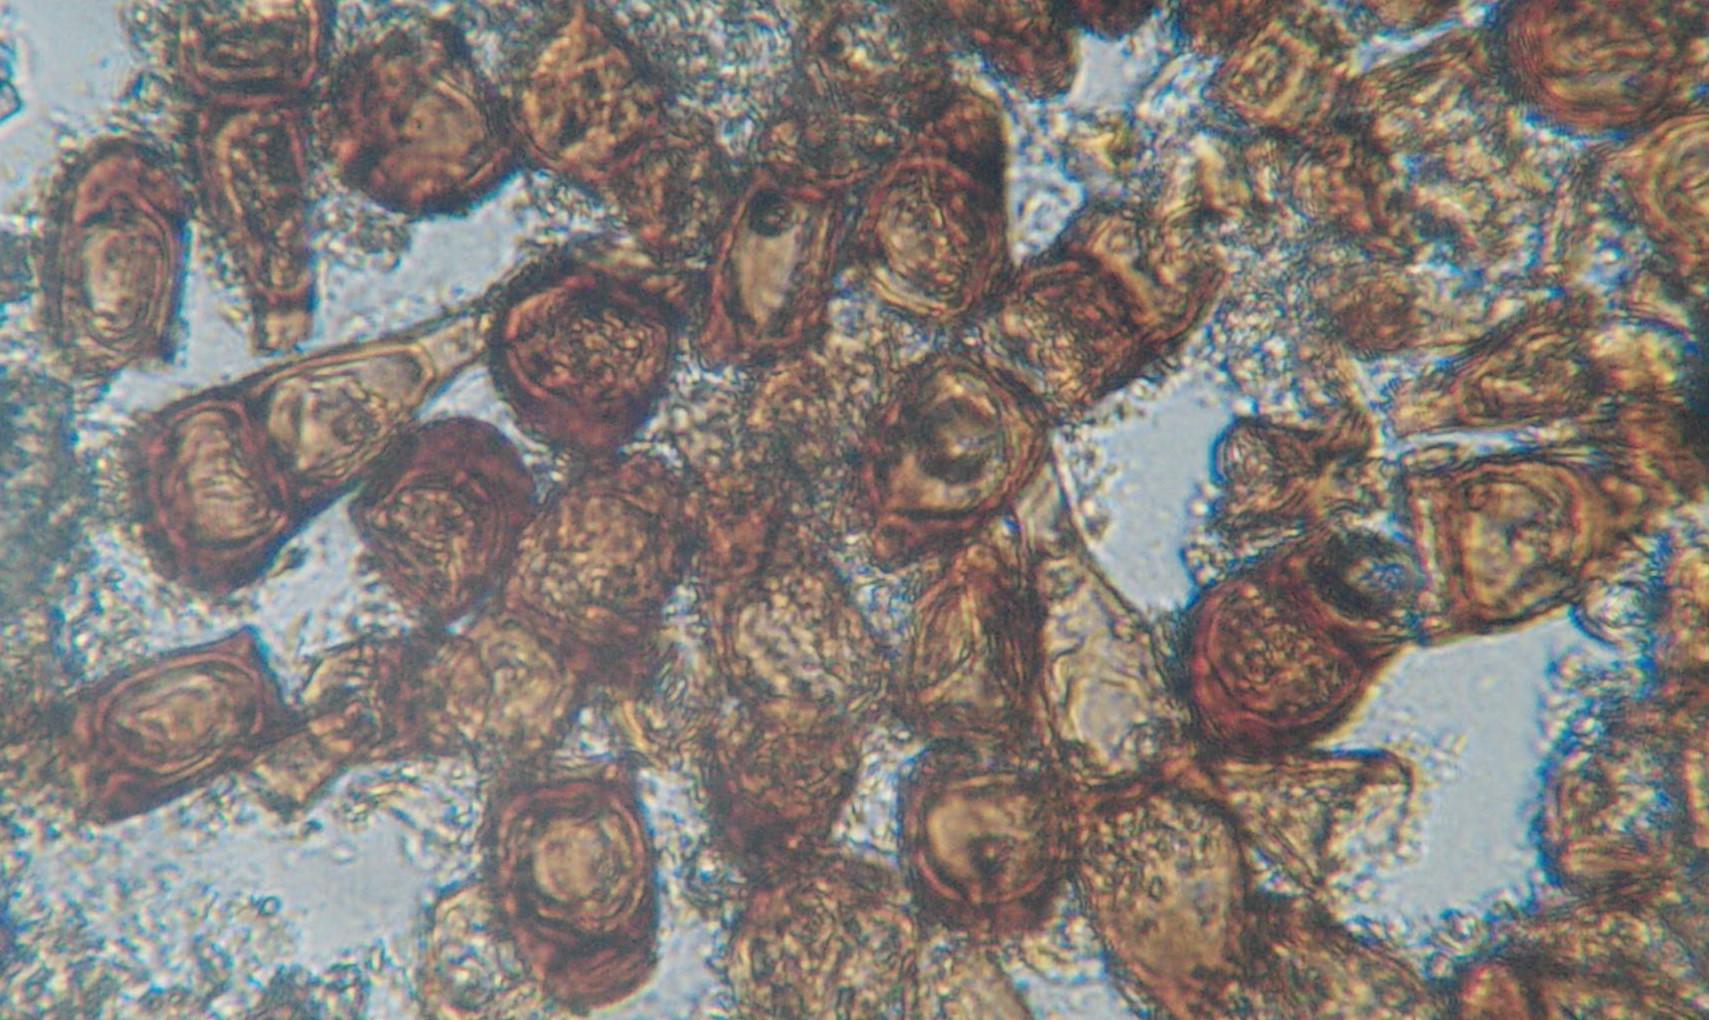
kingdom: Fungi
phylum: Basidiomycota
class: Pucciniomycetes
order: Pucciniales
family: Pucciniaceae
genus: Puccinia
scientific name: Puccinia
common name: tvecellerust
